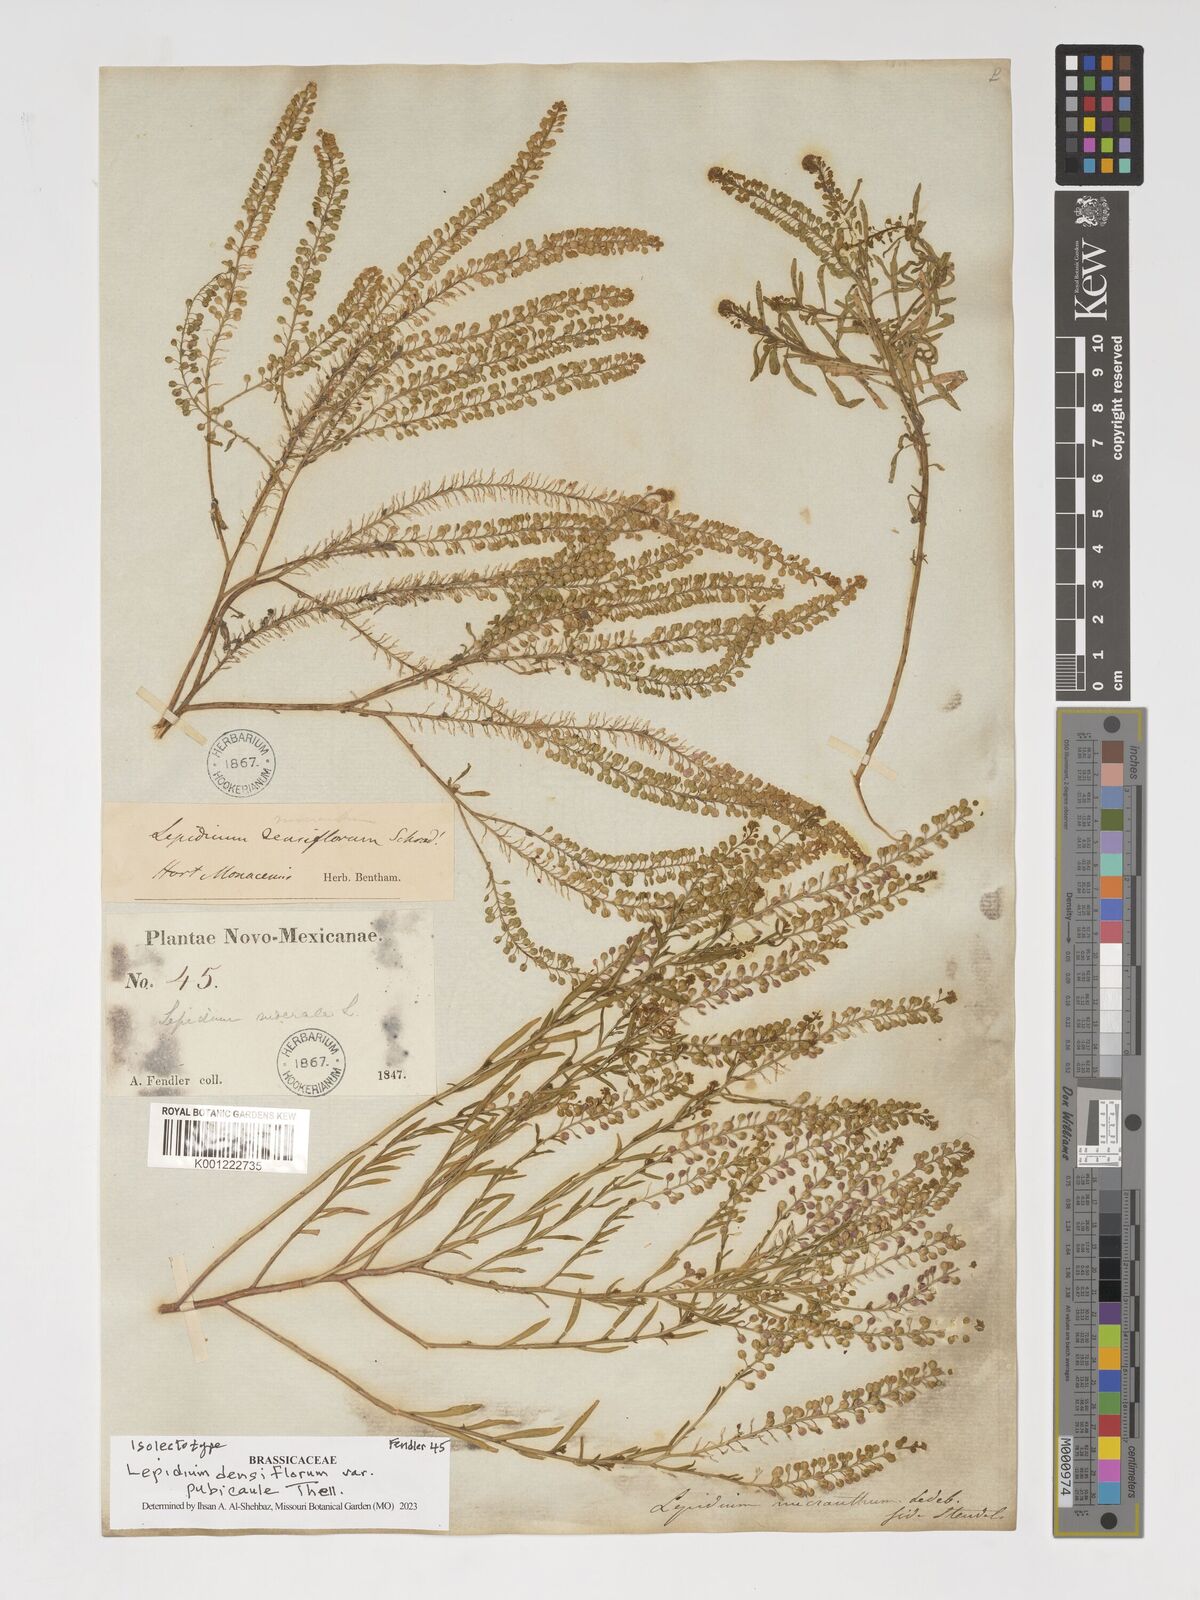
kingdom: Plantae
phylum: Tracheophyta
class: Magnoliopsida
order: Brassicales
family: Brassicaceae
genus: Lepidium
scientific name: Lepidium densiflorum
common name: Miner's pepperwort
